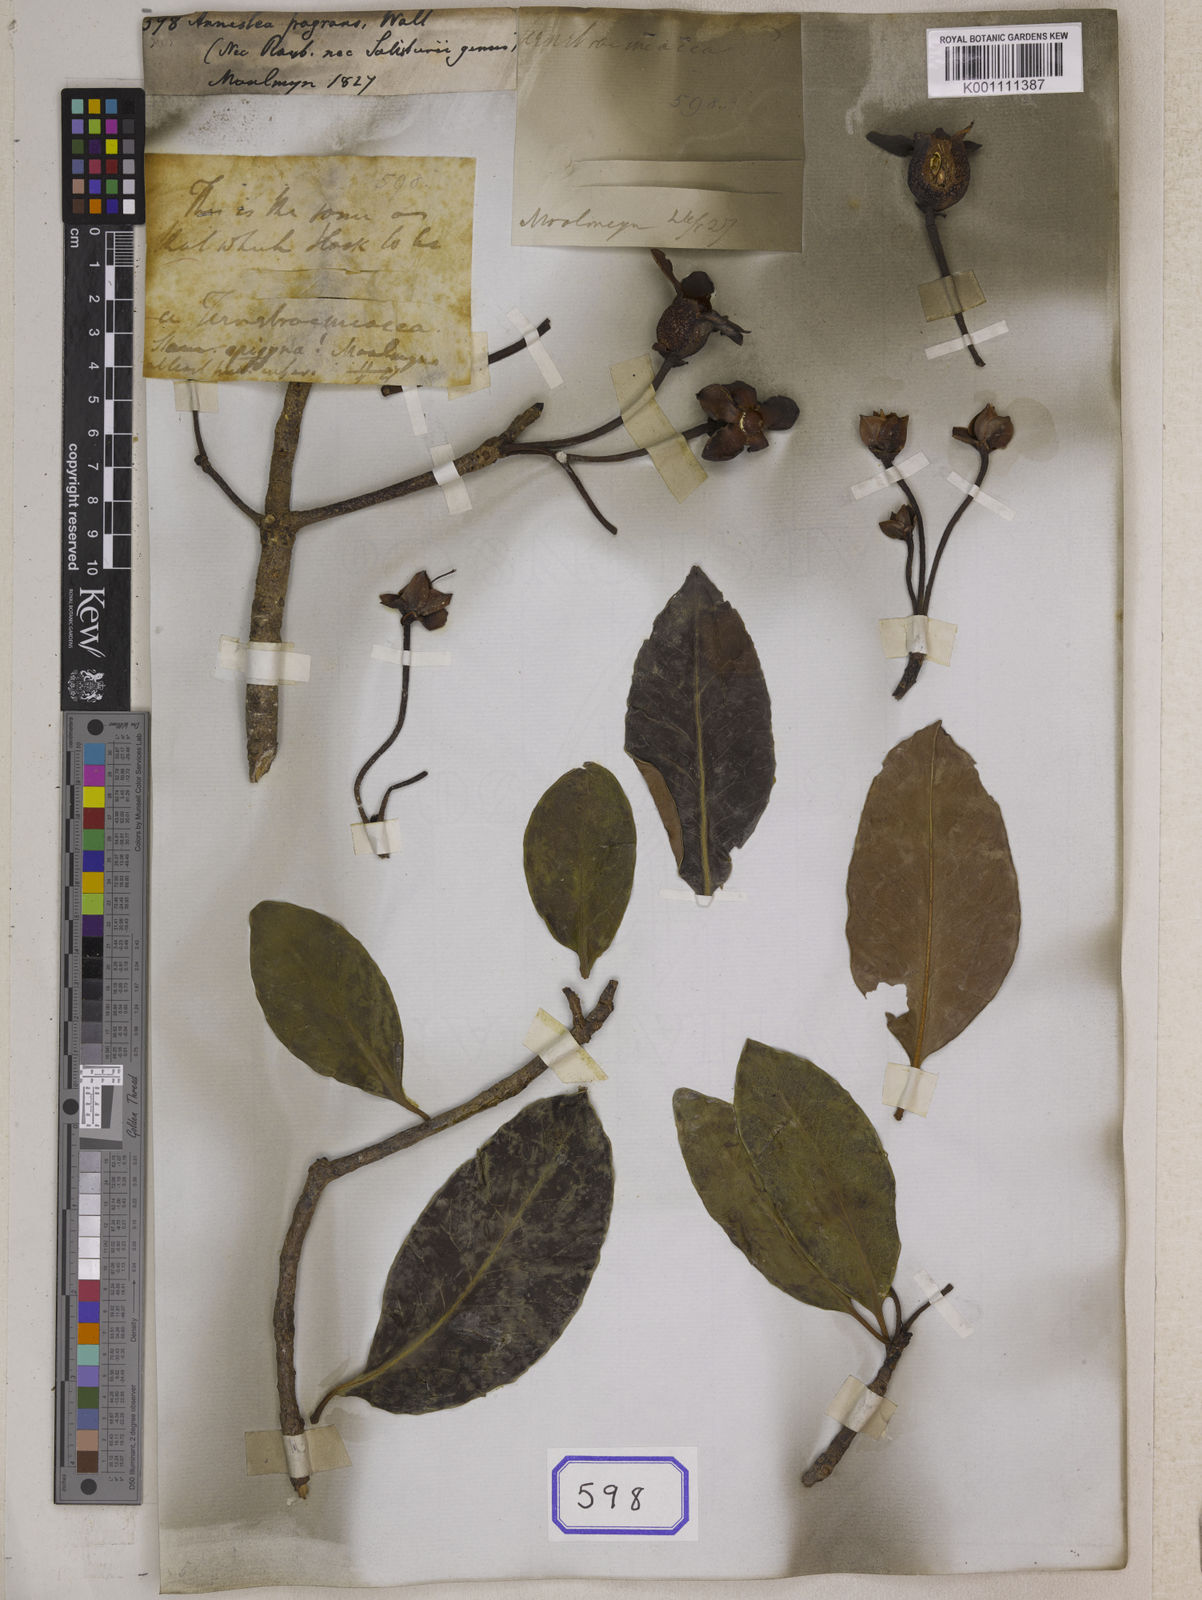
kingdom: Plantae
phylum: Tracheophyta
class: Magnoliopsida
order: Ericales
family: Pentaphylacaceae
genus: Anneslea
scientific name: Anneslea fragrans
